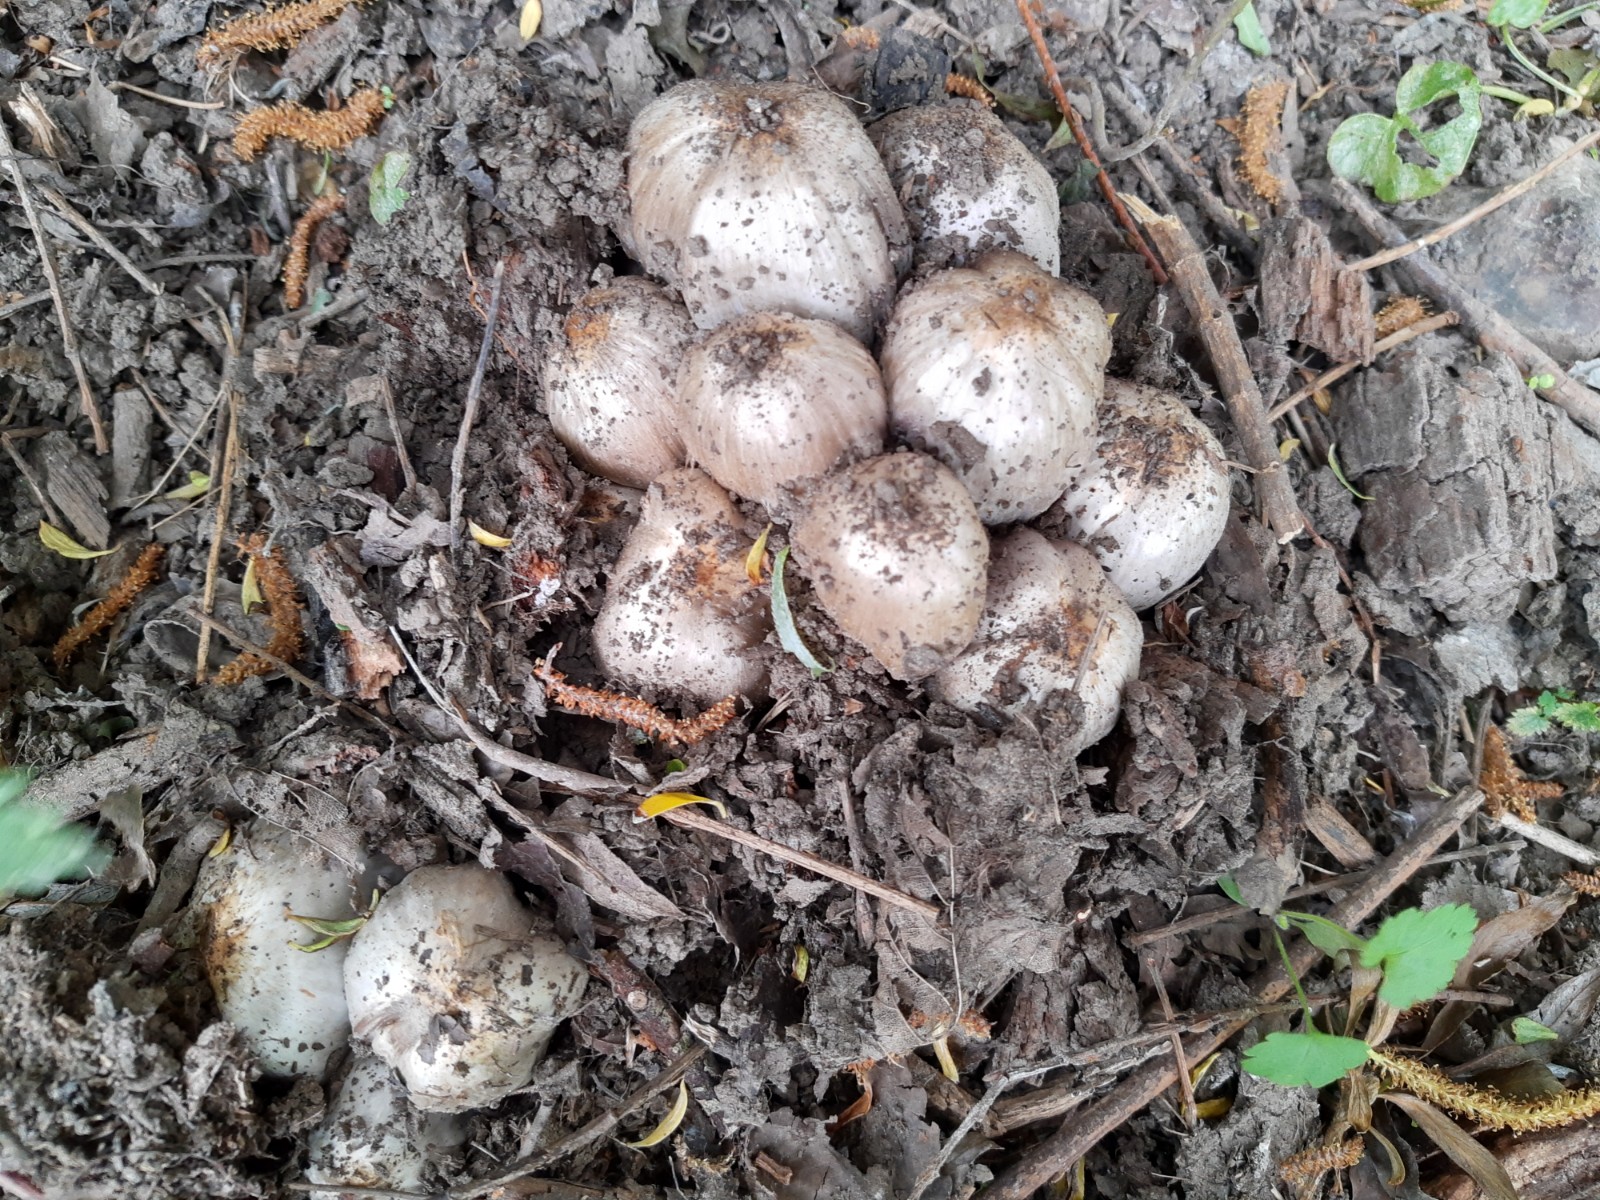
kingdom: Fungi
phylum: Basidiomycota
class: Agaricomycetes
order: Agaricales
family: Psathyrellaceae
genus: Coprinopsis
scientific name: Coprinopsis romagnesiana
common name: brunskællet blækhat
